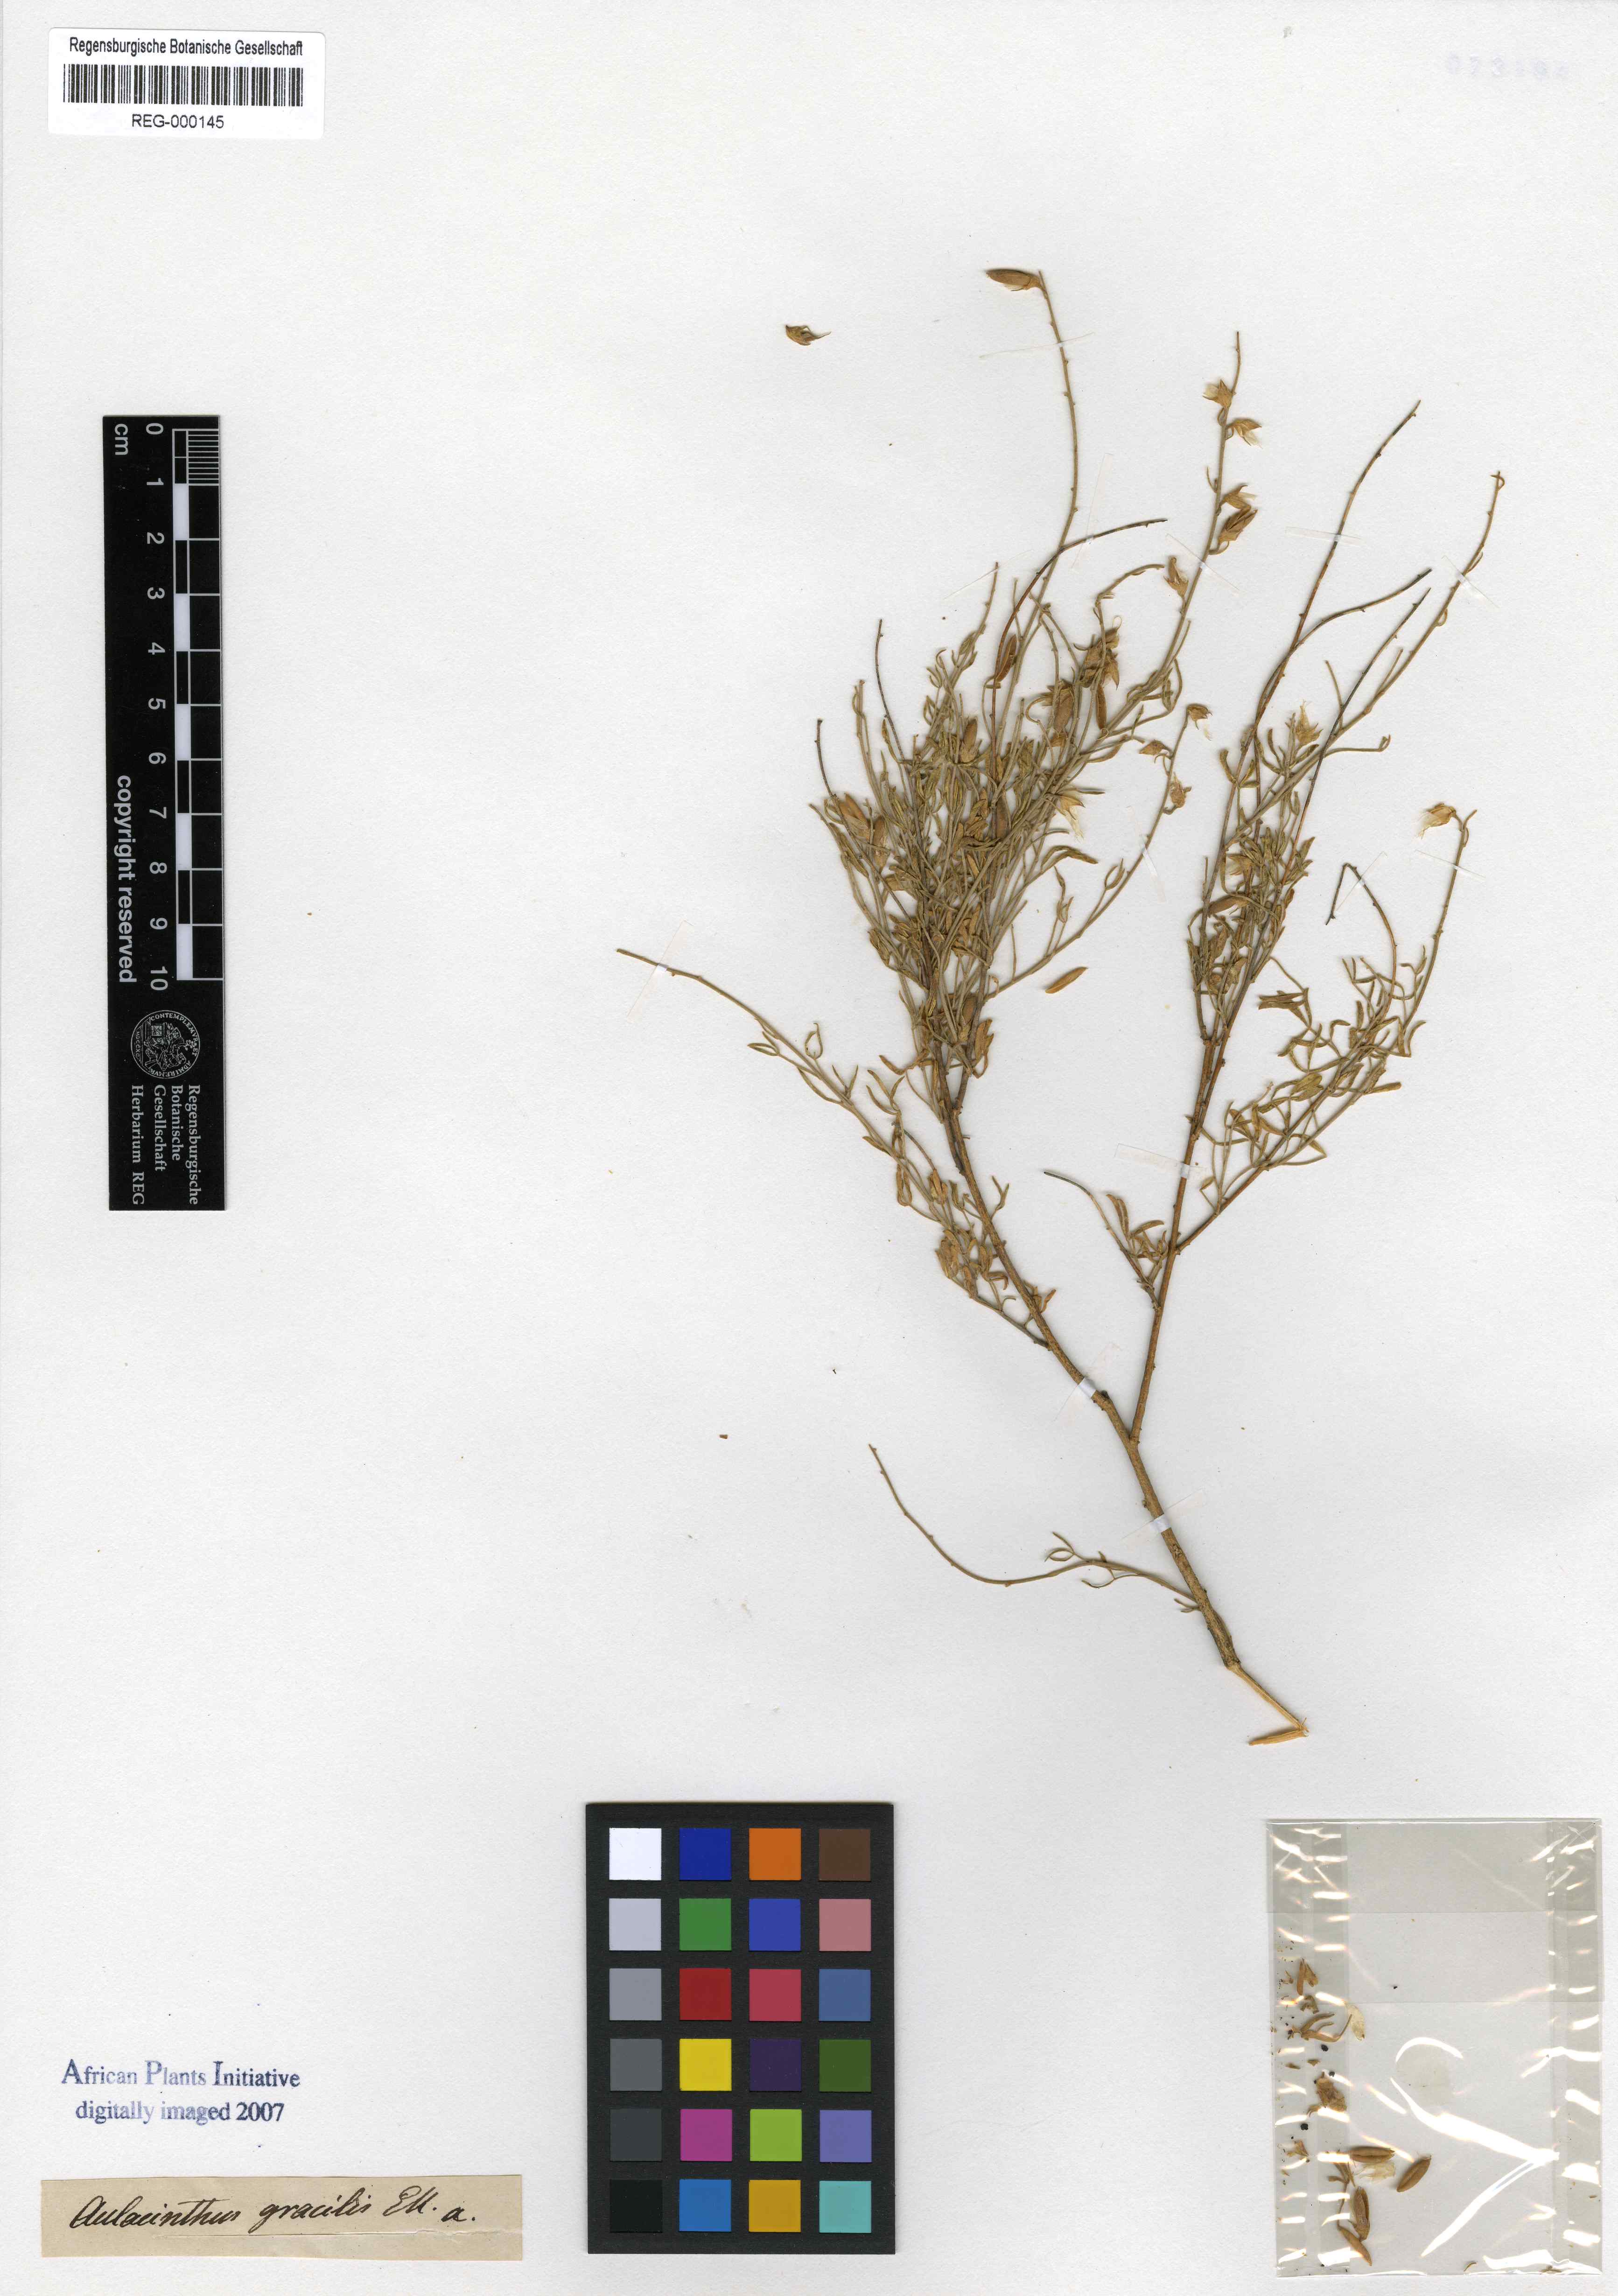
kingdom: Plantae
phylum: Tracheophyta
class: Magnoliopsida
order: Fabales
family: Fabaceae
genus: Lotononis
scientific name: Lotononis densa
